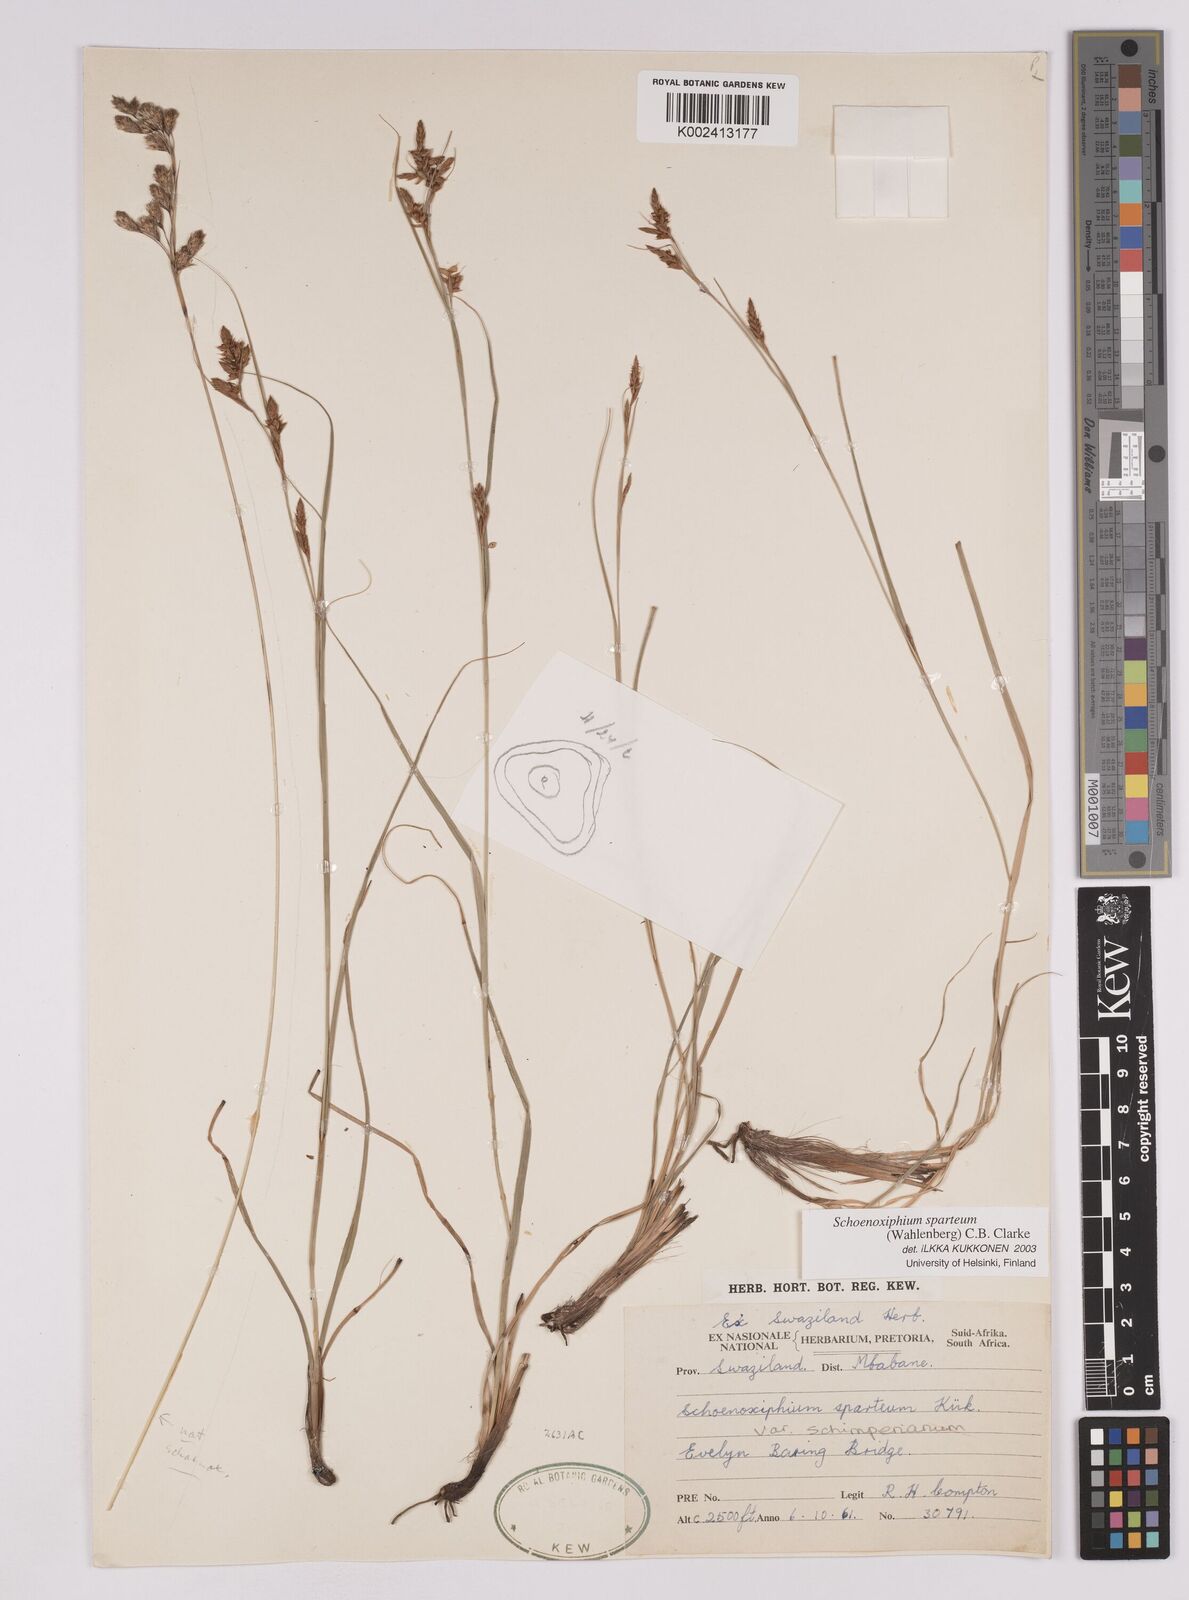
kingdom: Plantae
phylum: Tracheophyta
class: Liliopsida
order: Poales
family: Cyperaceae
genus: Carex
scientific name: Carex spartea
